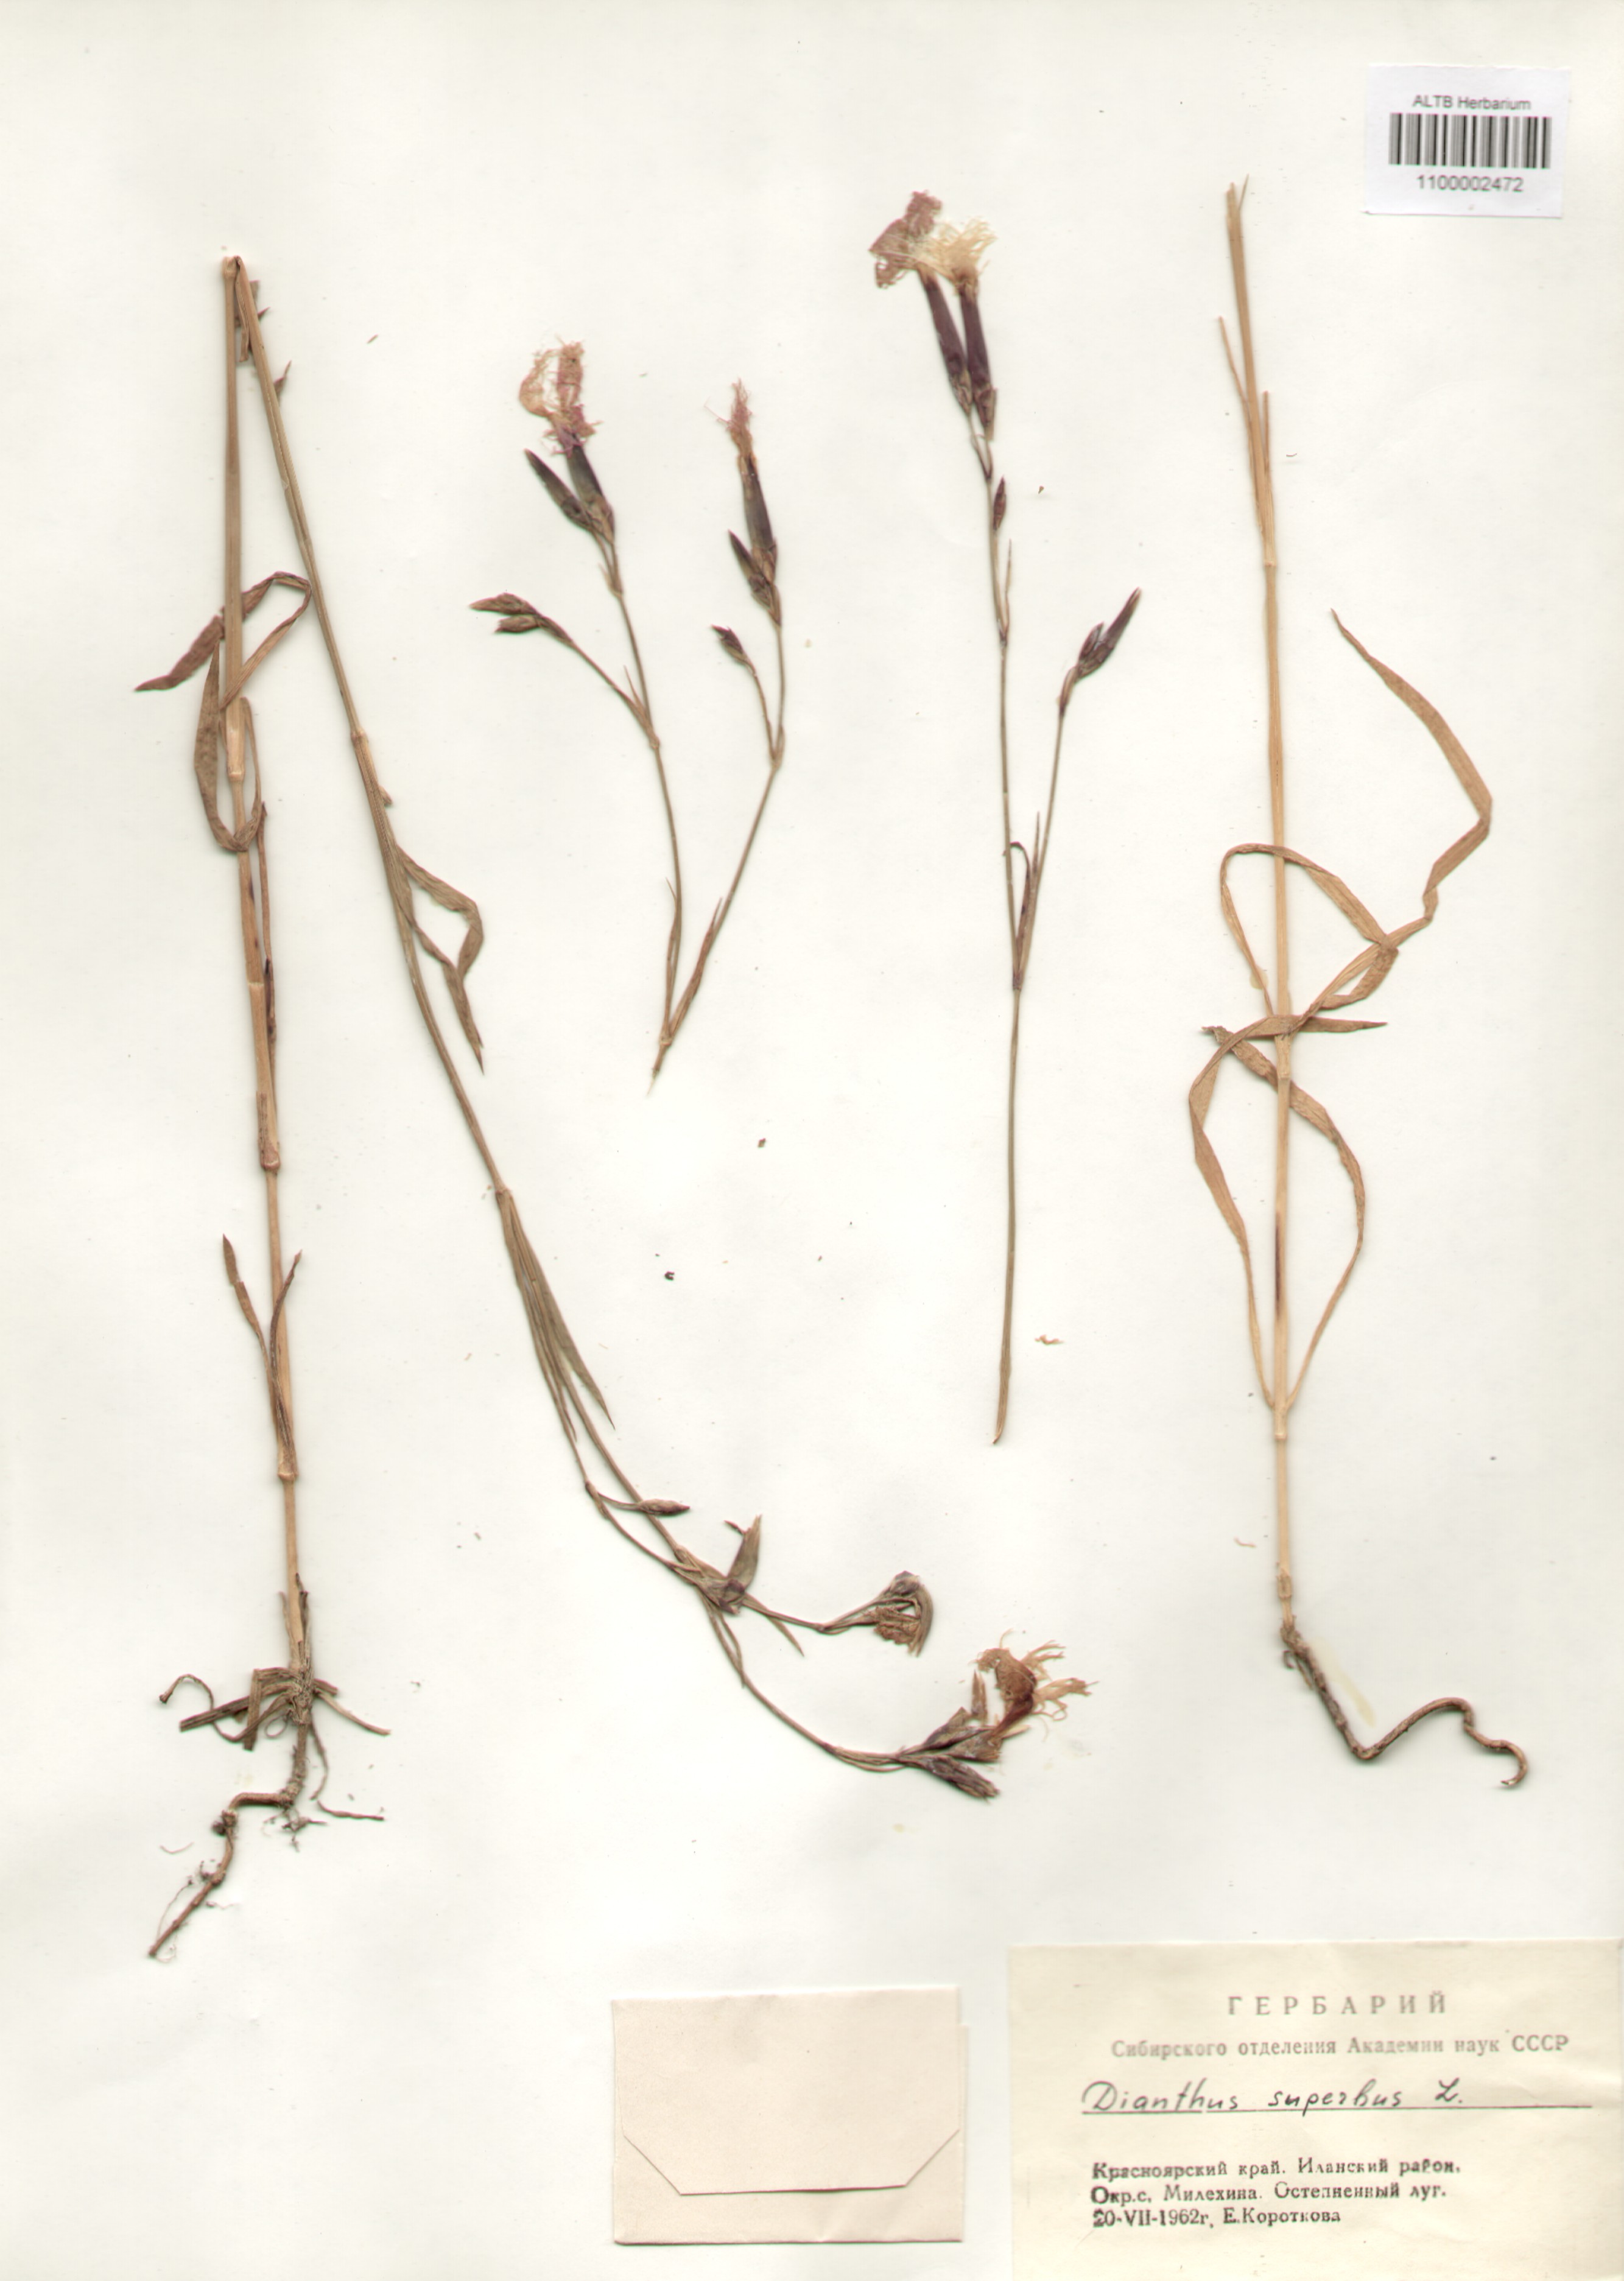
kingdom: Plantae
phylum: Tracheophyta
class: Magnoliopsida
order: Caryophyllales
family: Caryophyllaceae
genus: Dianthus
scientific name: Dianthus superbus
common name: Fringed pink
